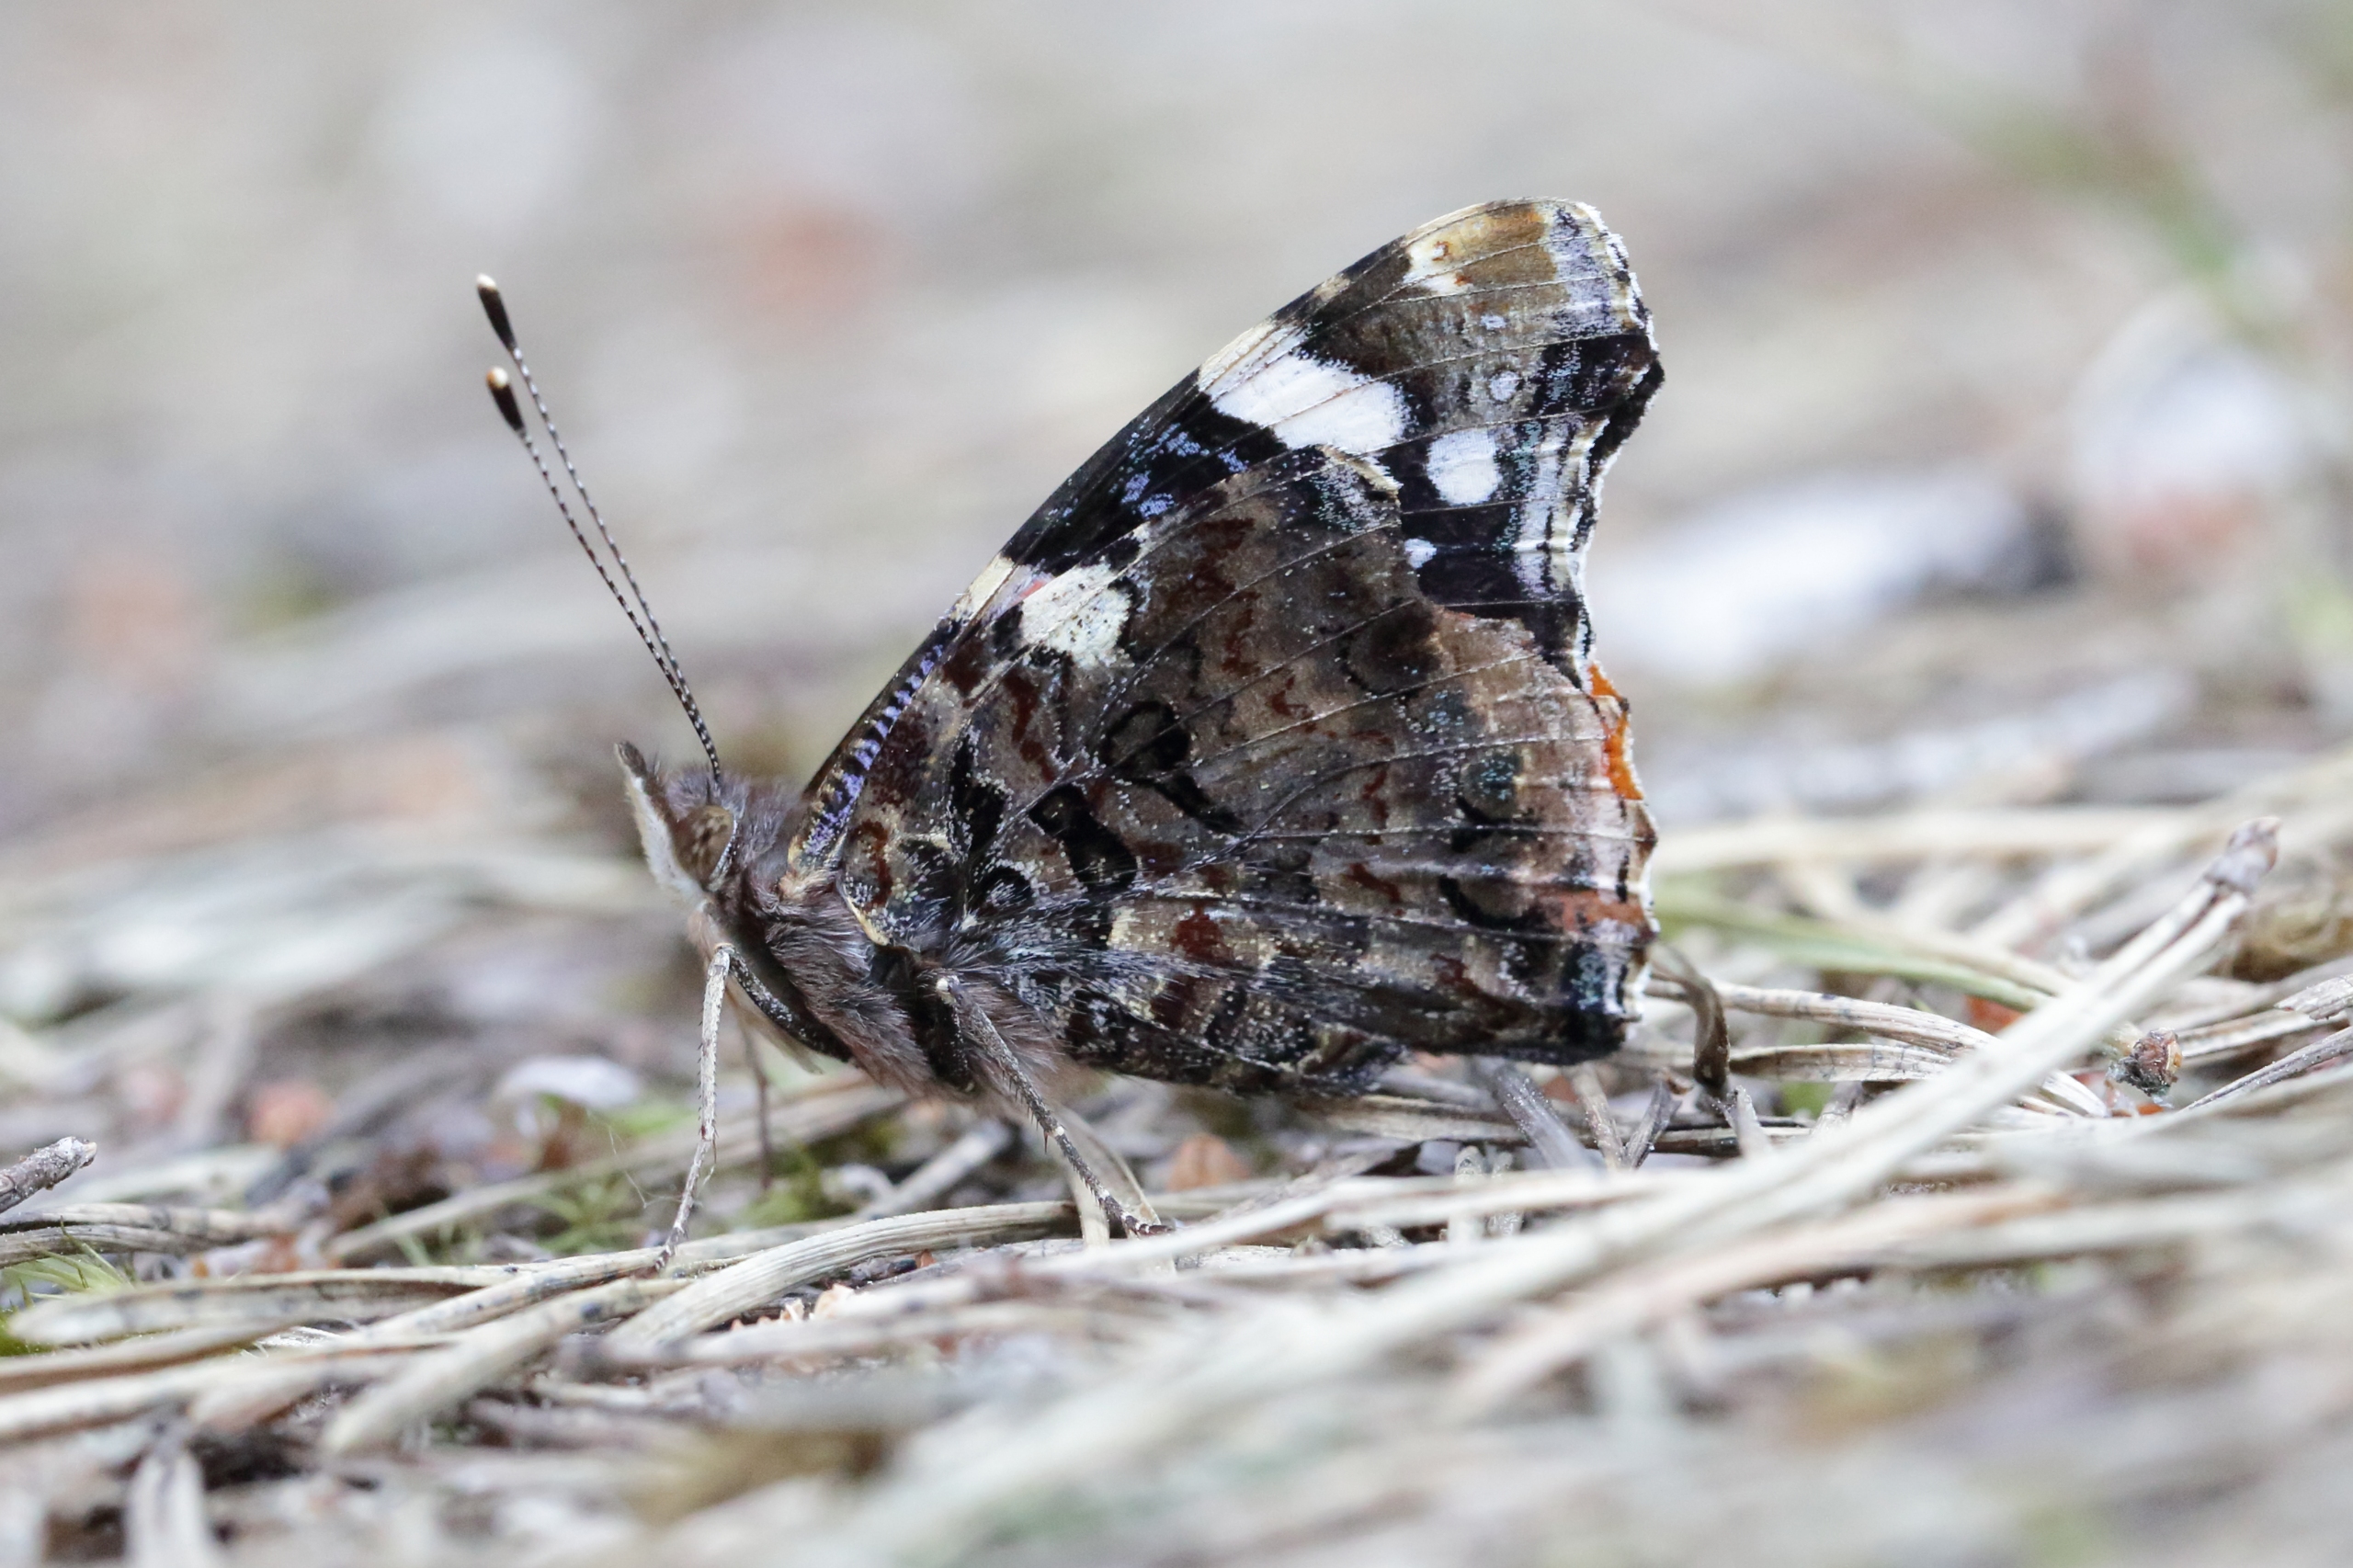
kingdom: Animalia
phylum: Arthropoda
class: Insecta
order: Lepidoptera
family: Nymphalidae
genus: Vanessa
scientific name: Vanessa atalanta
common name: Admiral
